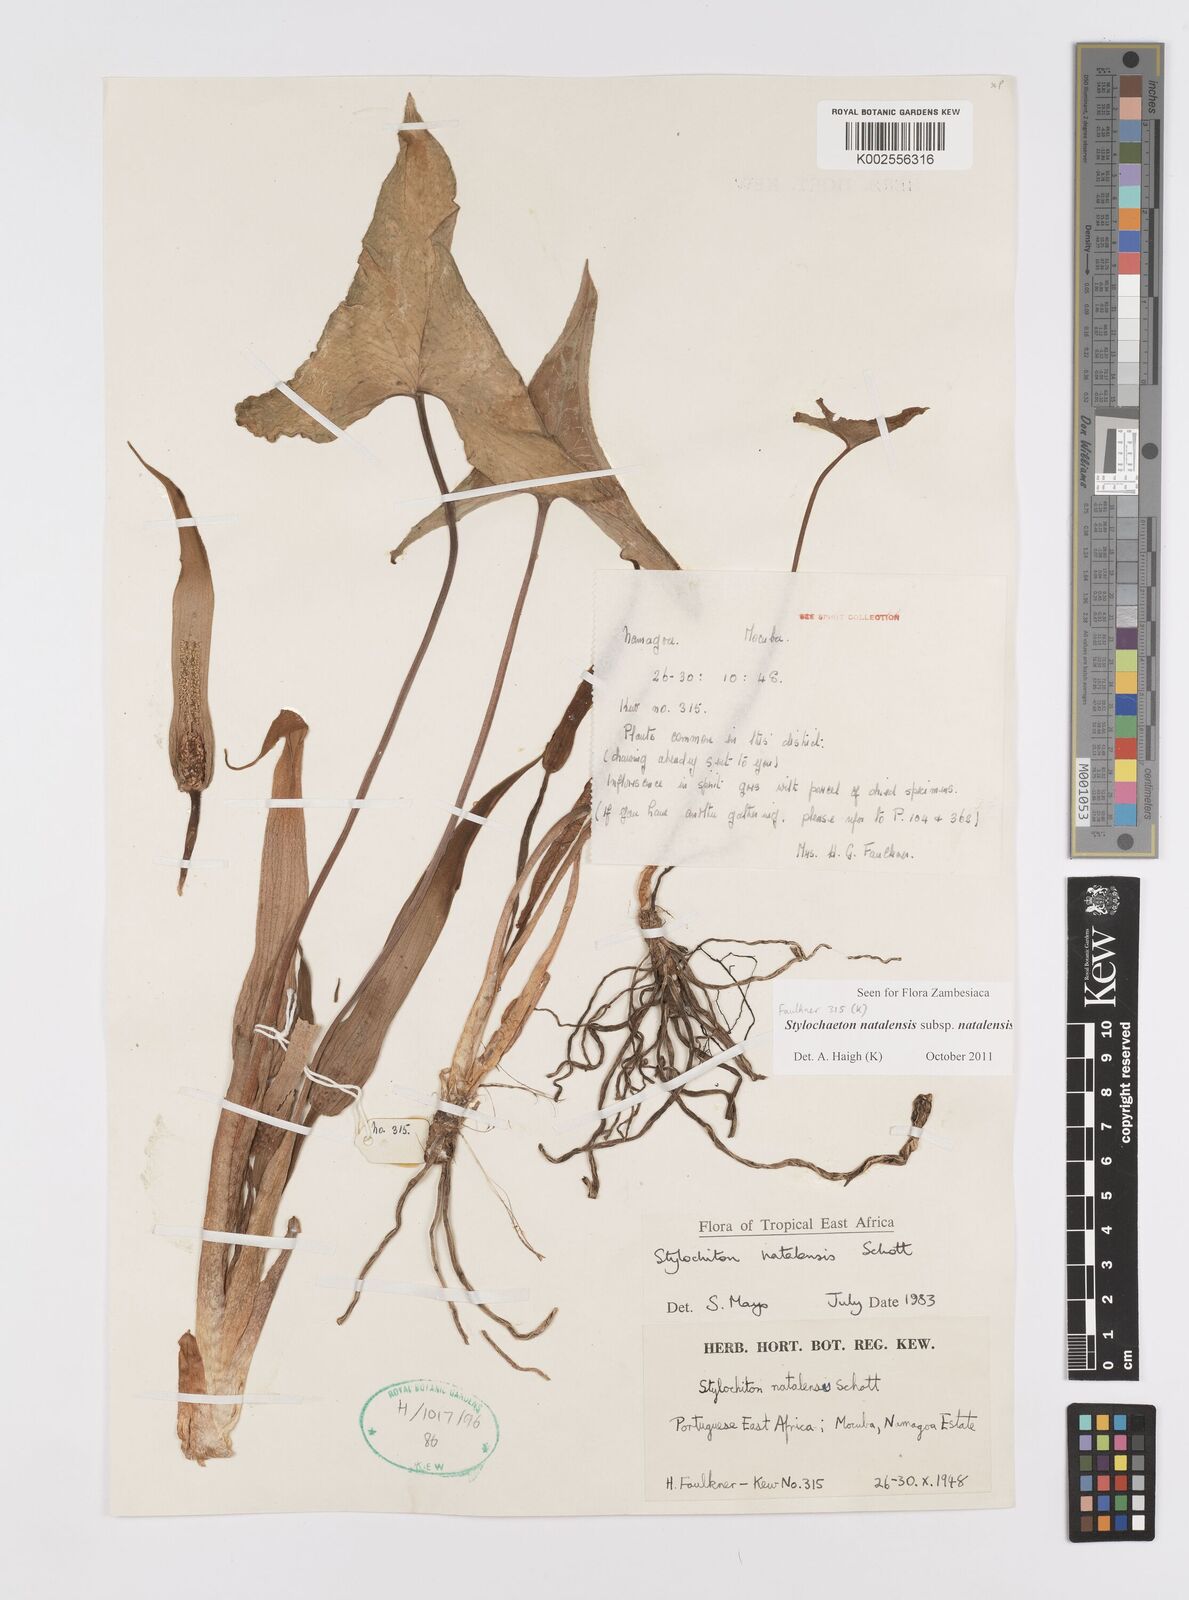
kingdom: Plantae
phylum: Tracheophyta
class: Liliopsida
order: Alismatales
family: Araceae
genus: Stylochaeton
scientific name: Stylochaeton natalense
